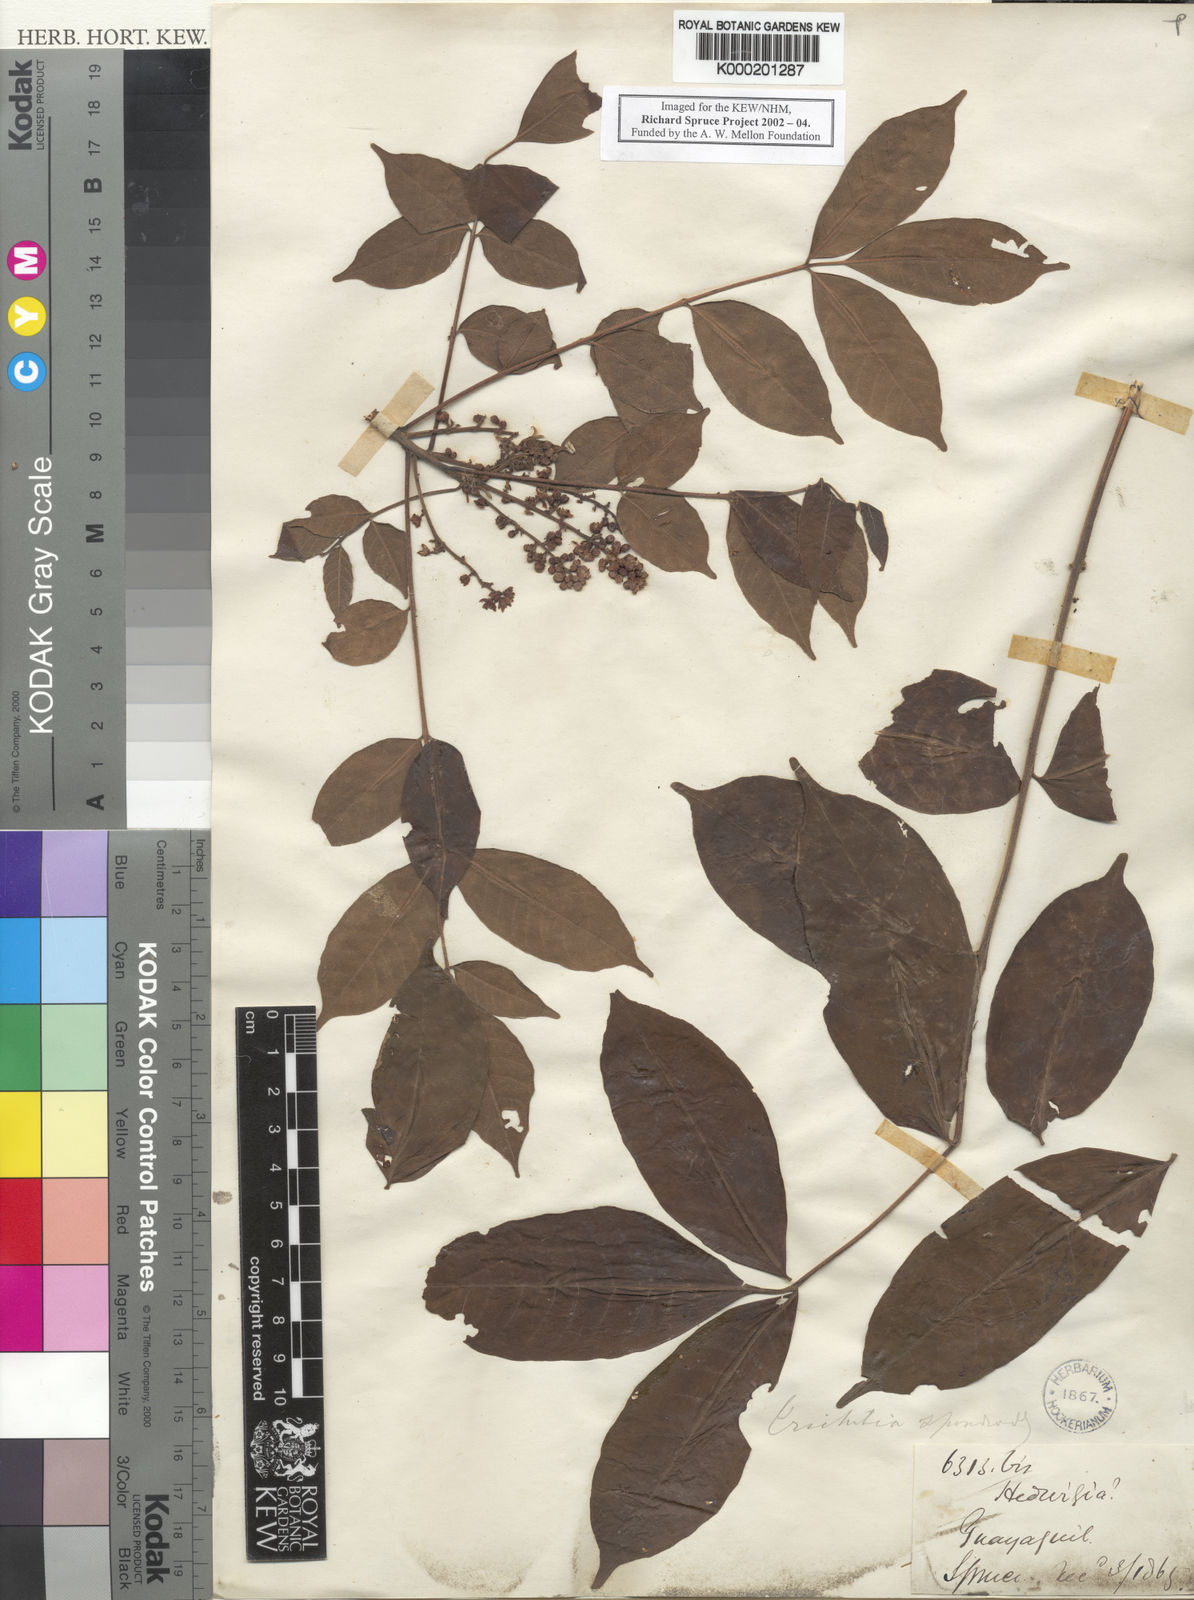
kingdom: Plantae
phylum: Tracheophyta
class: Magnoliopsida
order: Sapindales
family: Meliaceae
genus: Trichilia
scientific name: Trichilia hirta
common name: Red-cedar
